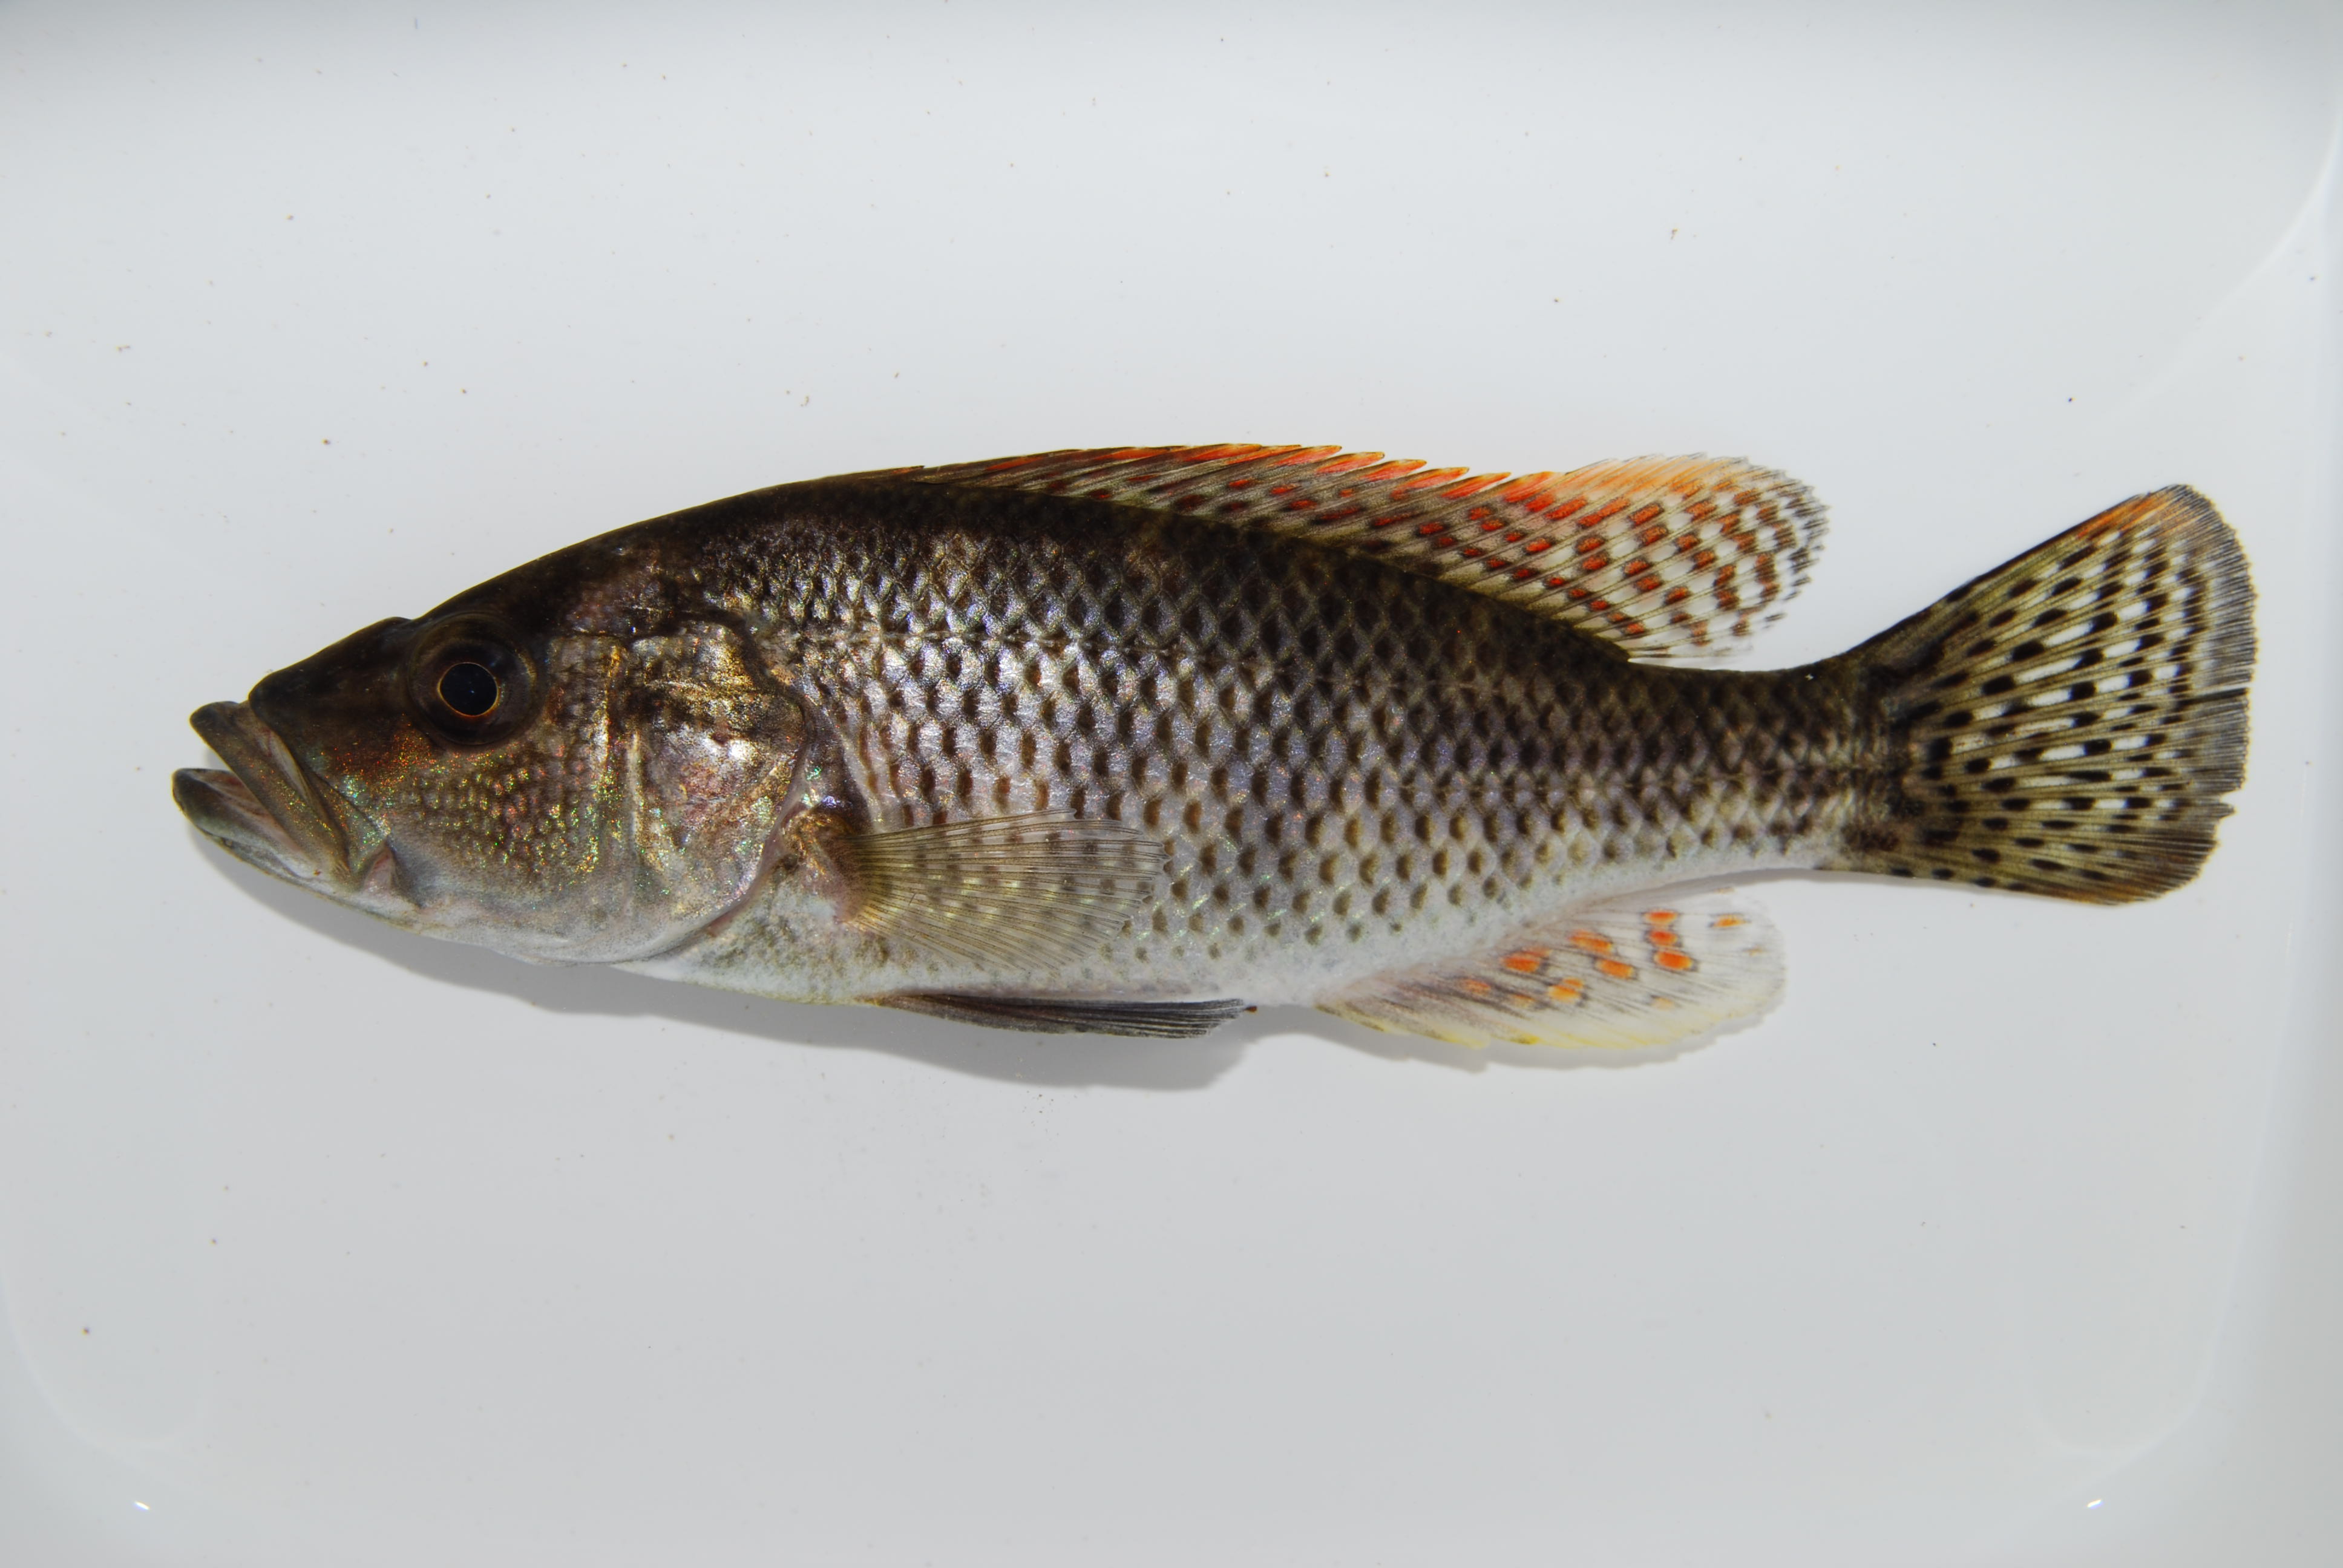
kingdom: Animalia
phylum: Chordata
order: Perciformes
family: Cichlidae
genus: Serranochromis
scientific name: Serranochromis
